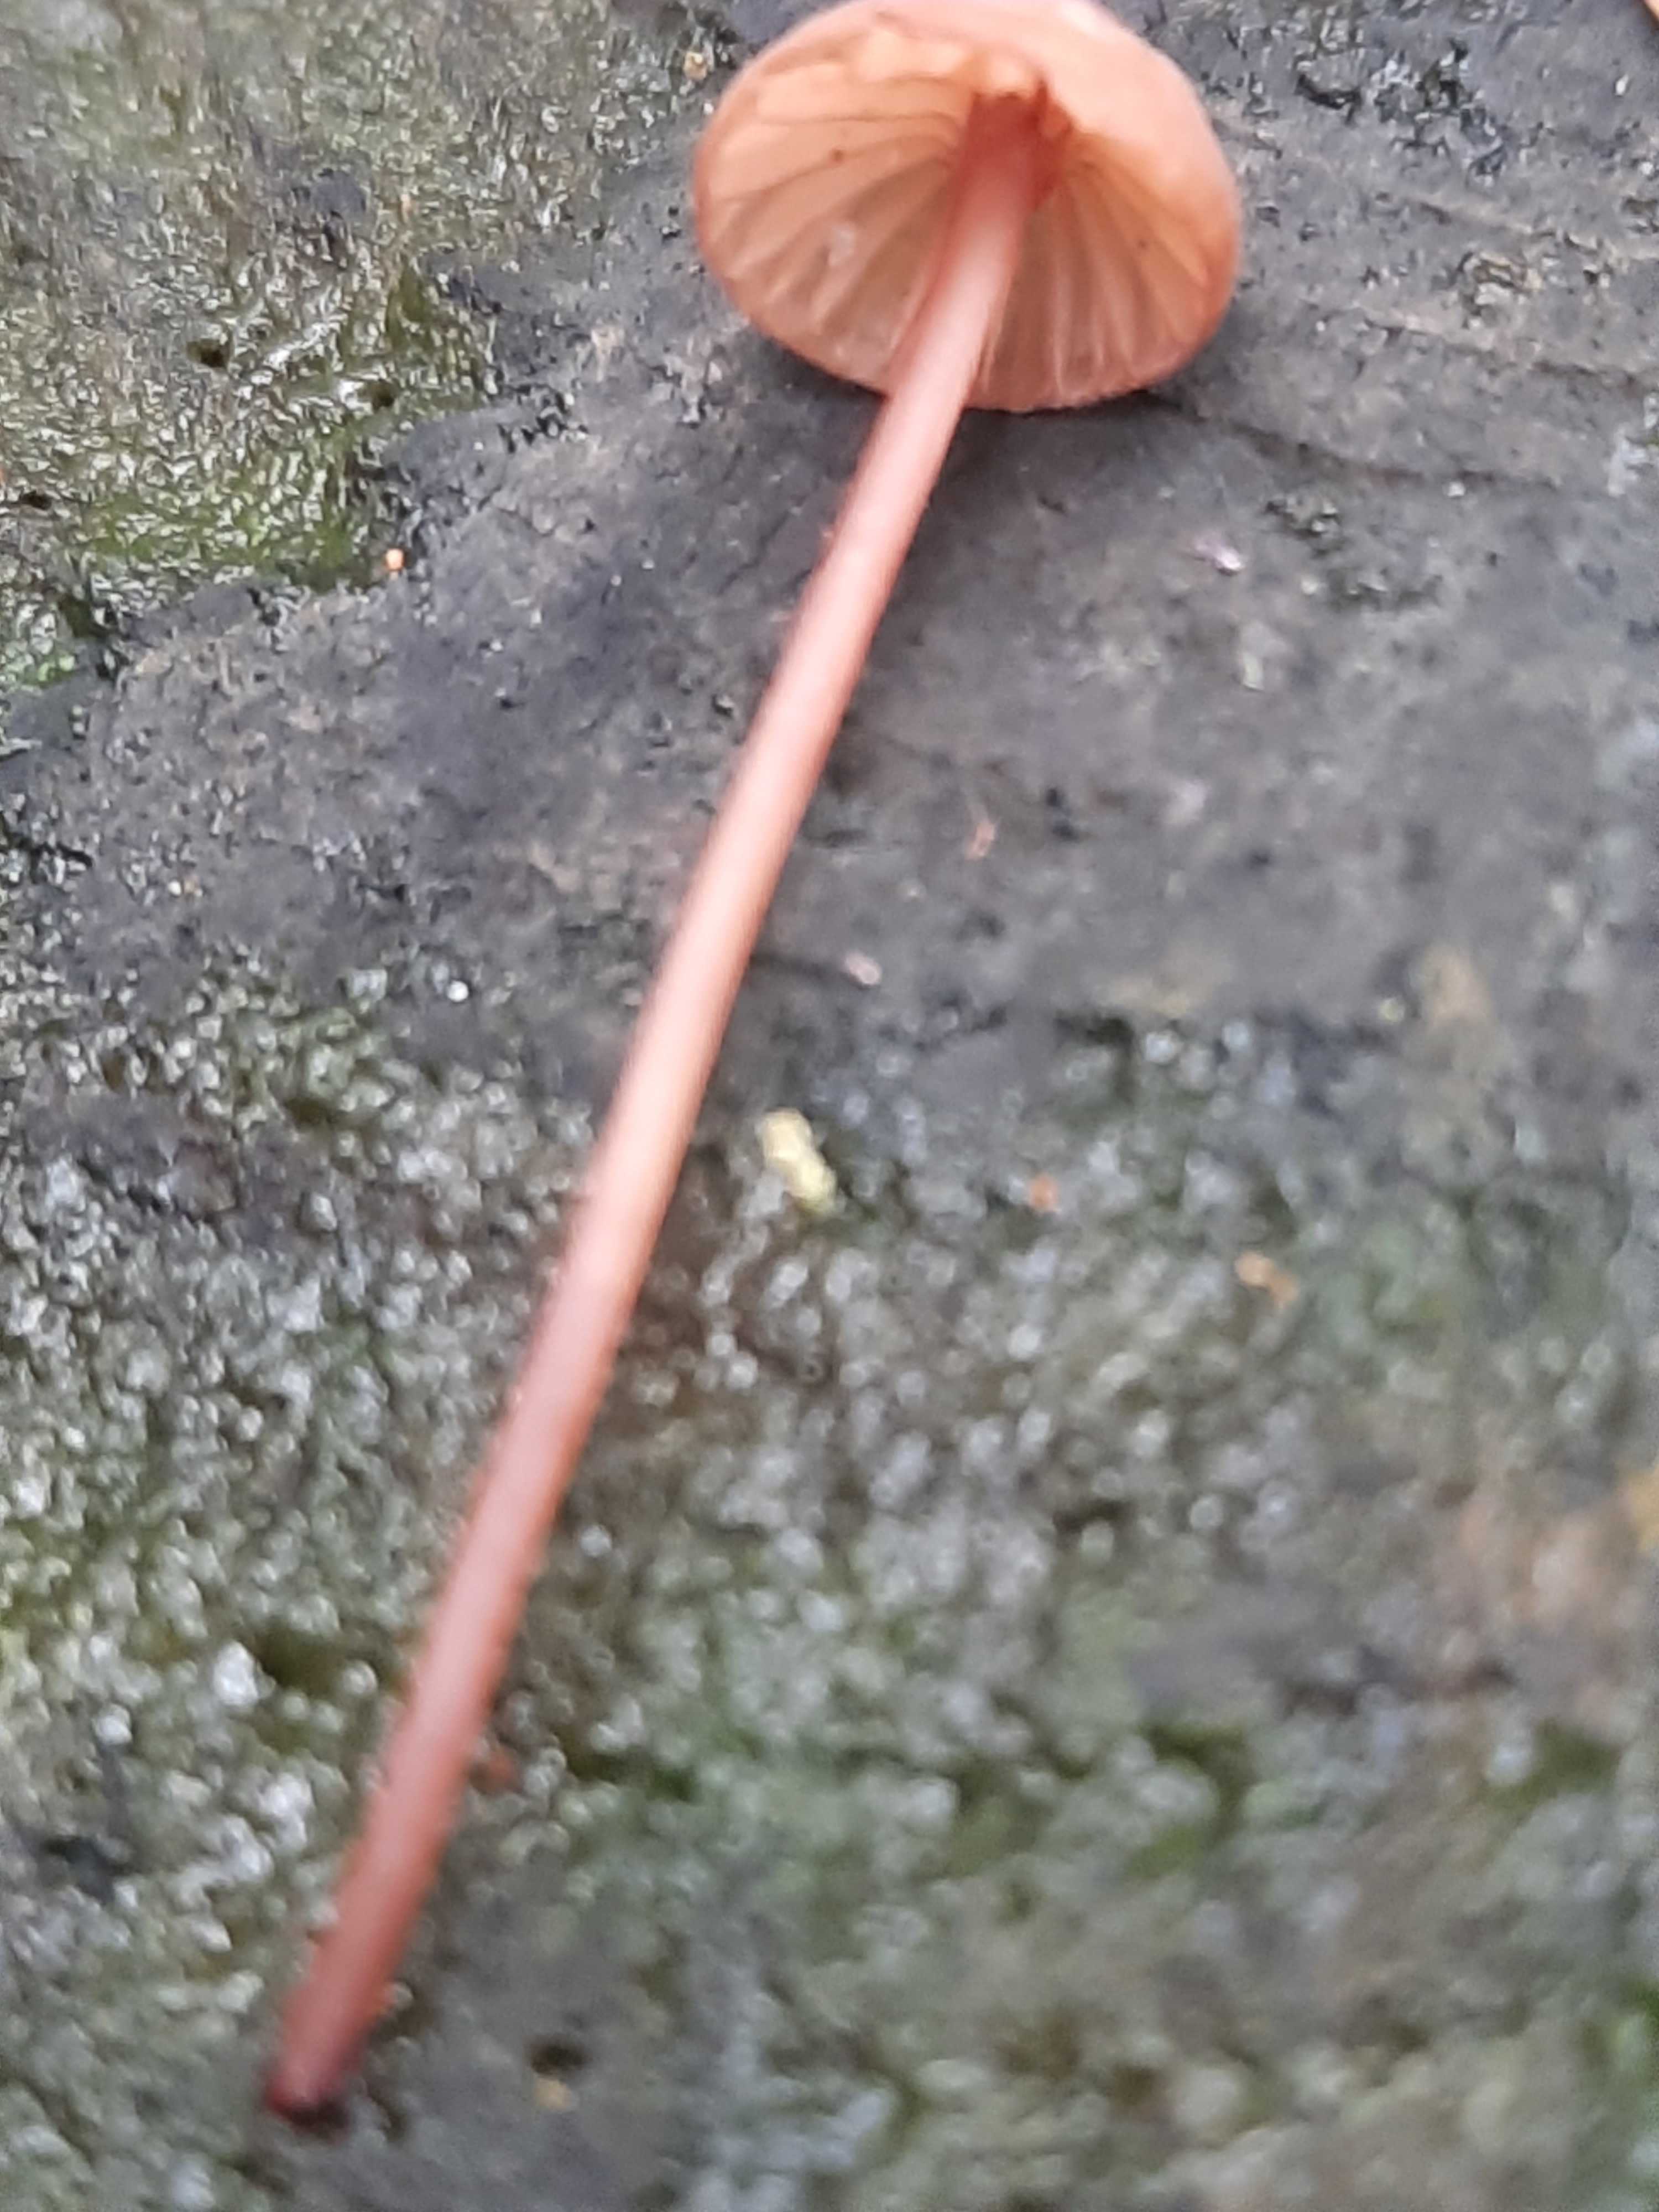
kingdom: Fungi
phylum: Basidiomycota
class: Agaricomycetes
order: Agaricales
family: Mycenaceae
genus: Mycena
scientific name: Mycena sanguinolenta
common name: rødmælket huesvamp
